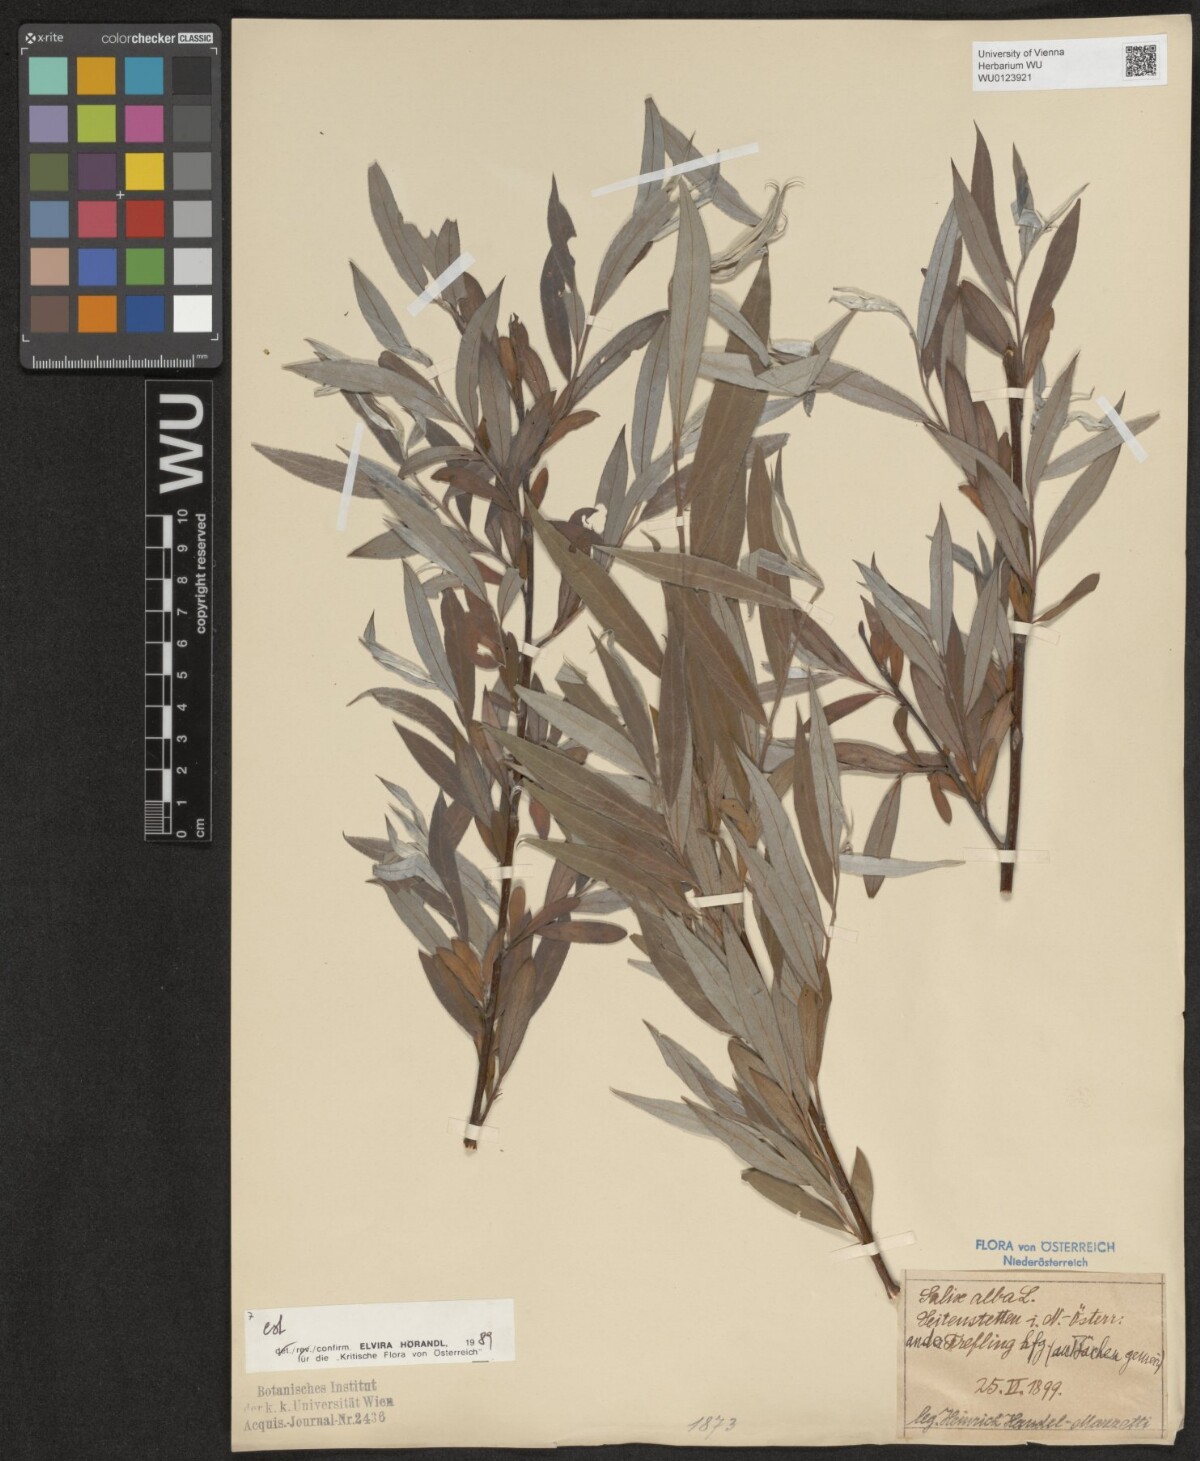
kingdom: Plantae
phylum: Tracheophyta
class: Magnoliopsida
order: Malpighiales
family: Salicaceae
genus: Salix
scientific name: Salix alba
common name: White willow
